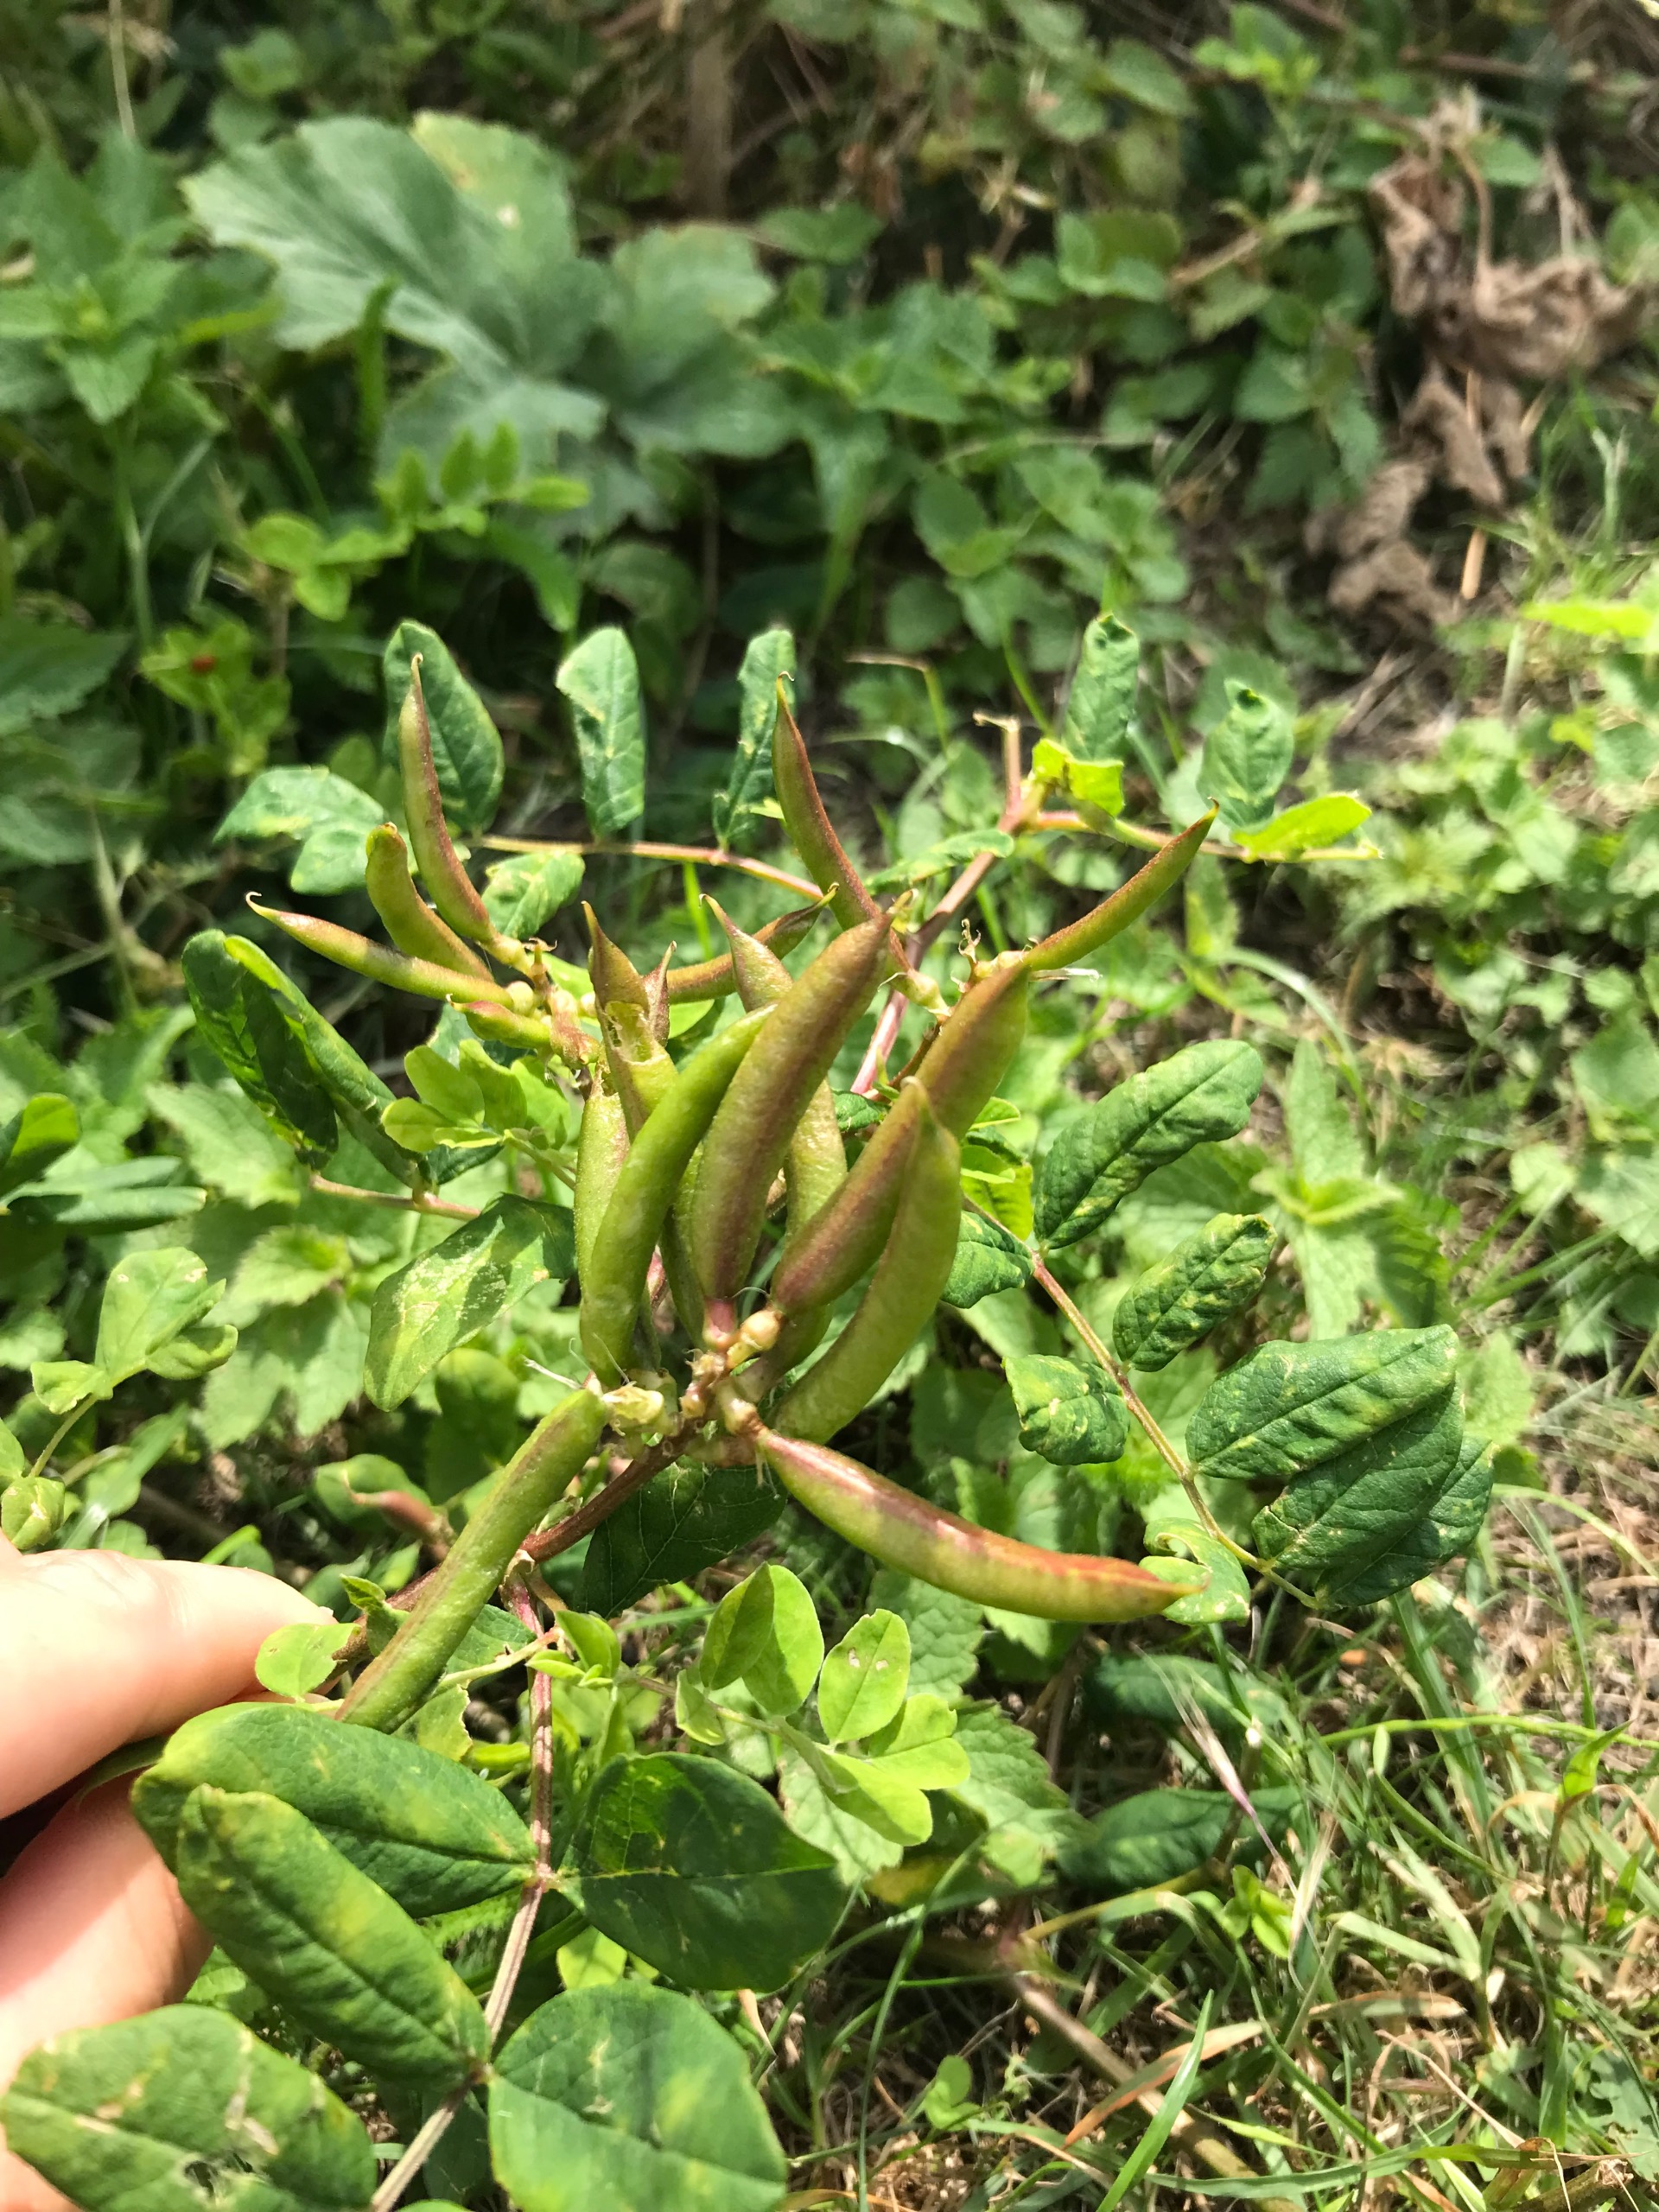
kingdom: Plantae
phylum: Tracheophyta
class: Magnoliopsida
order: Fabales
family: Fabaceae
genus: Astragalus
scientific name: Astragalus glycyphyllos
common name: Sød astragel
